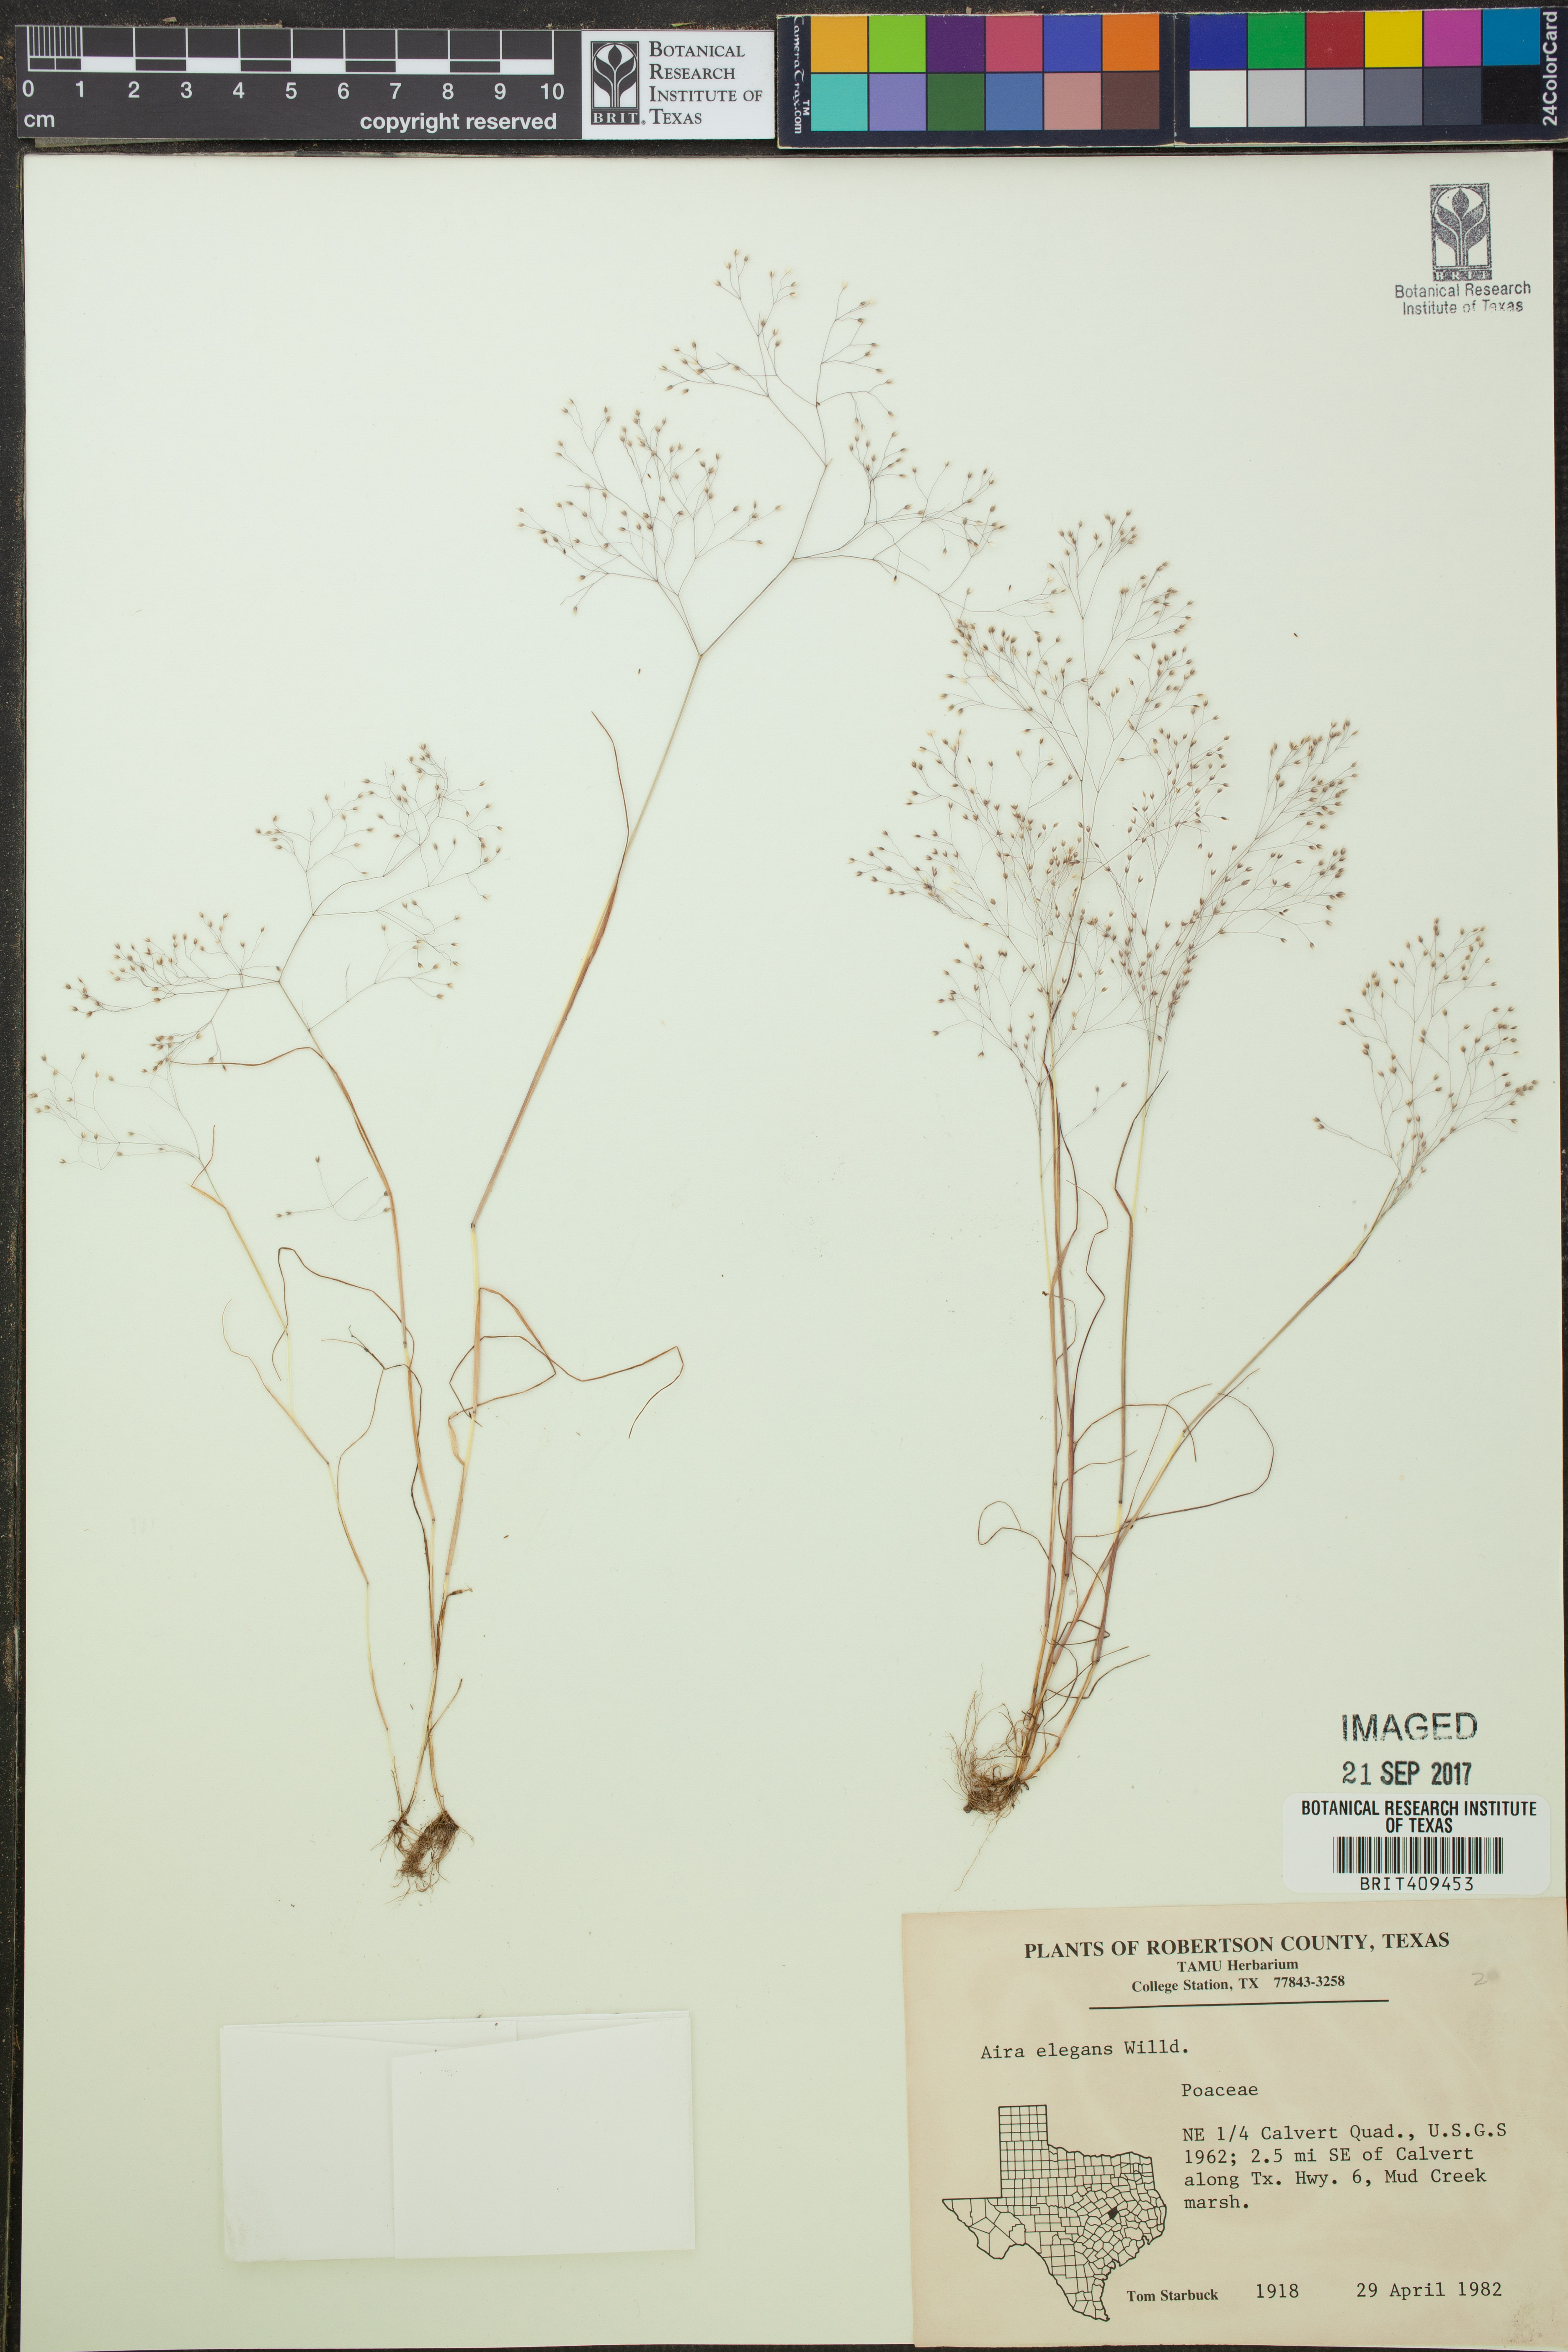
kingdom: Plantae
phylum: Tracheophyta
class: Liliopsida
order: Poales
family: Poaceae
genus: Aira
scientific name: Aira elegans
